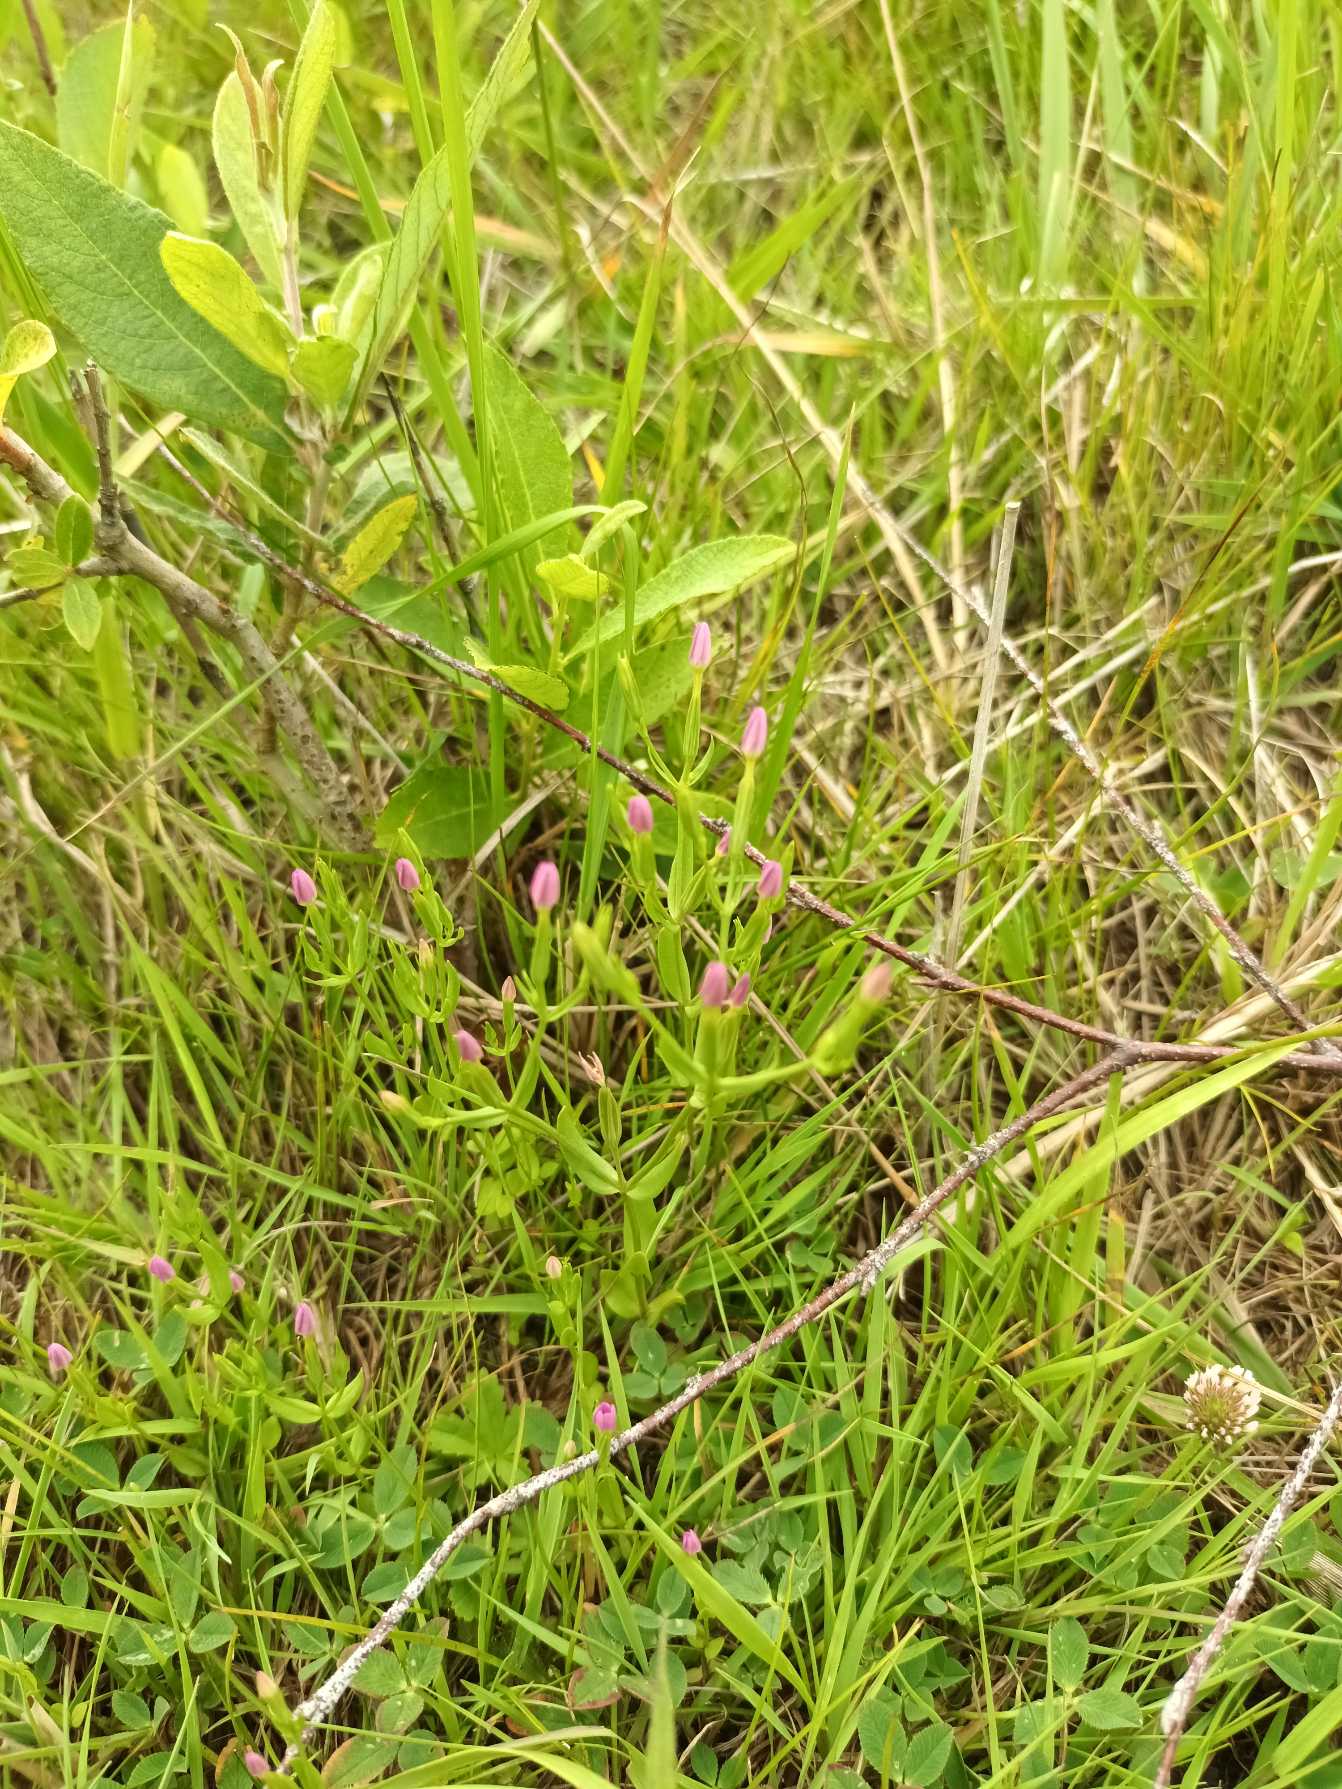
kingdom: Plantae
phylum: Tracheophyta
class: Magnoliopsida
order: Gentianales
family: Gentianaceae
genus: Centaurium
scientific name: Centaurium pulchellum
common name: Liden tusindgylden
